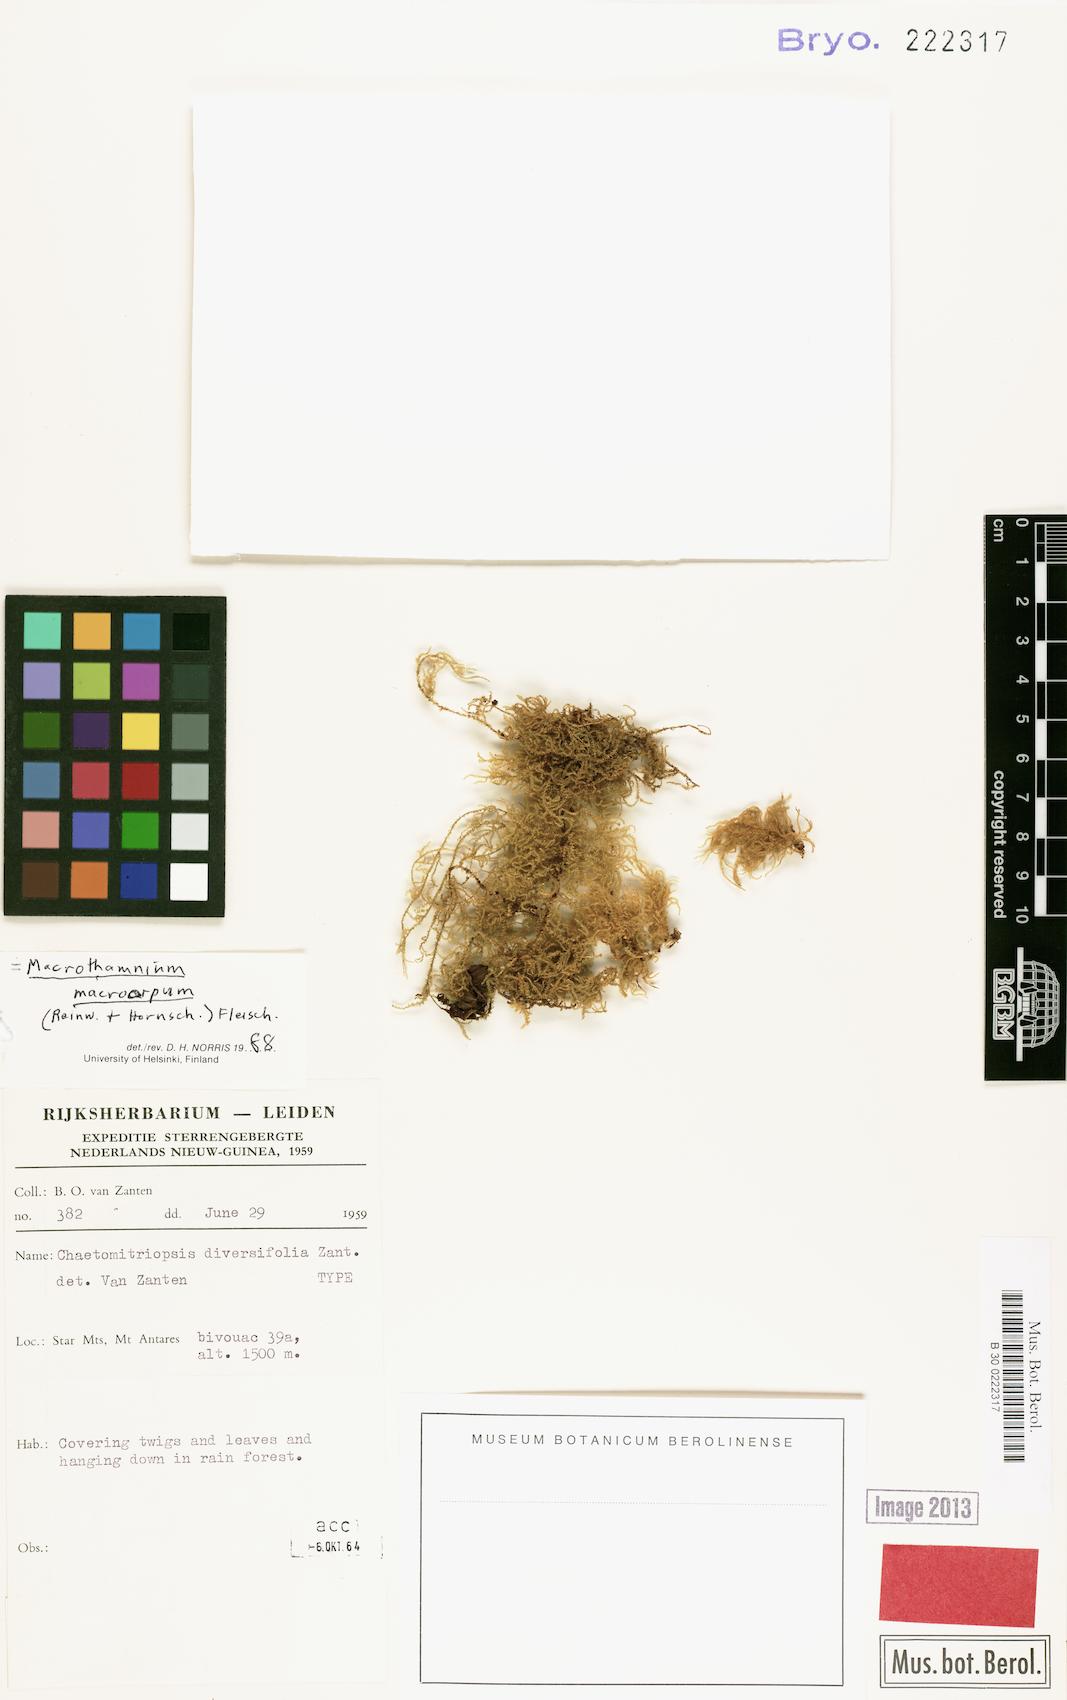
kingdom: Plantae
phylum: Bryophyta
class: Bryopsida
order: Hypnales
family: Hylocomiaceae
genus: Macrothamnium
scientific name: Macrothamnium javense
